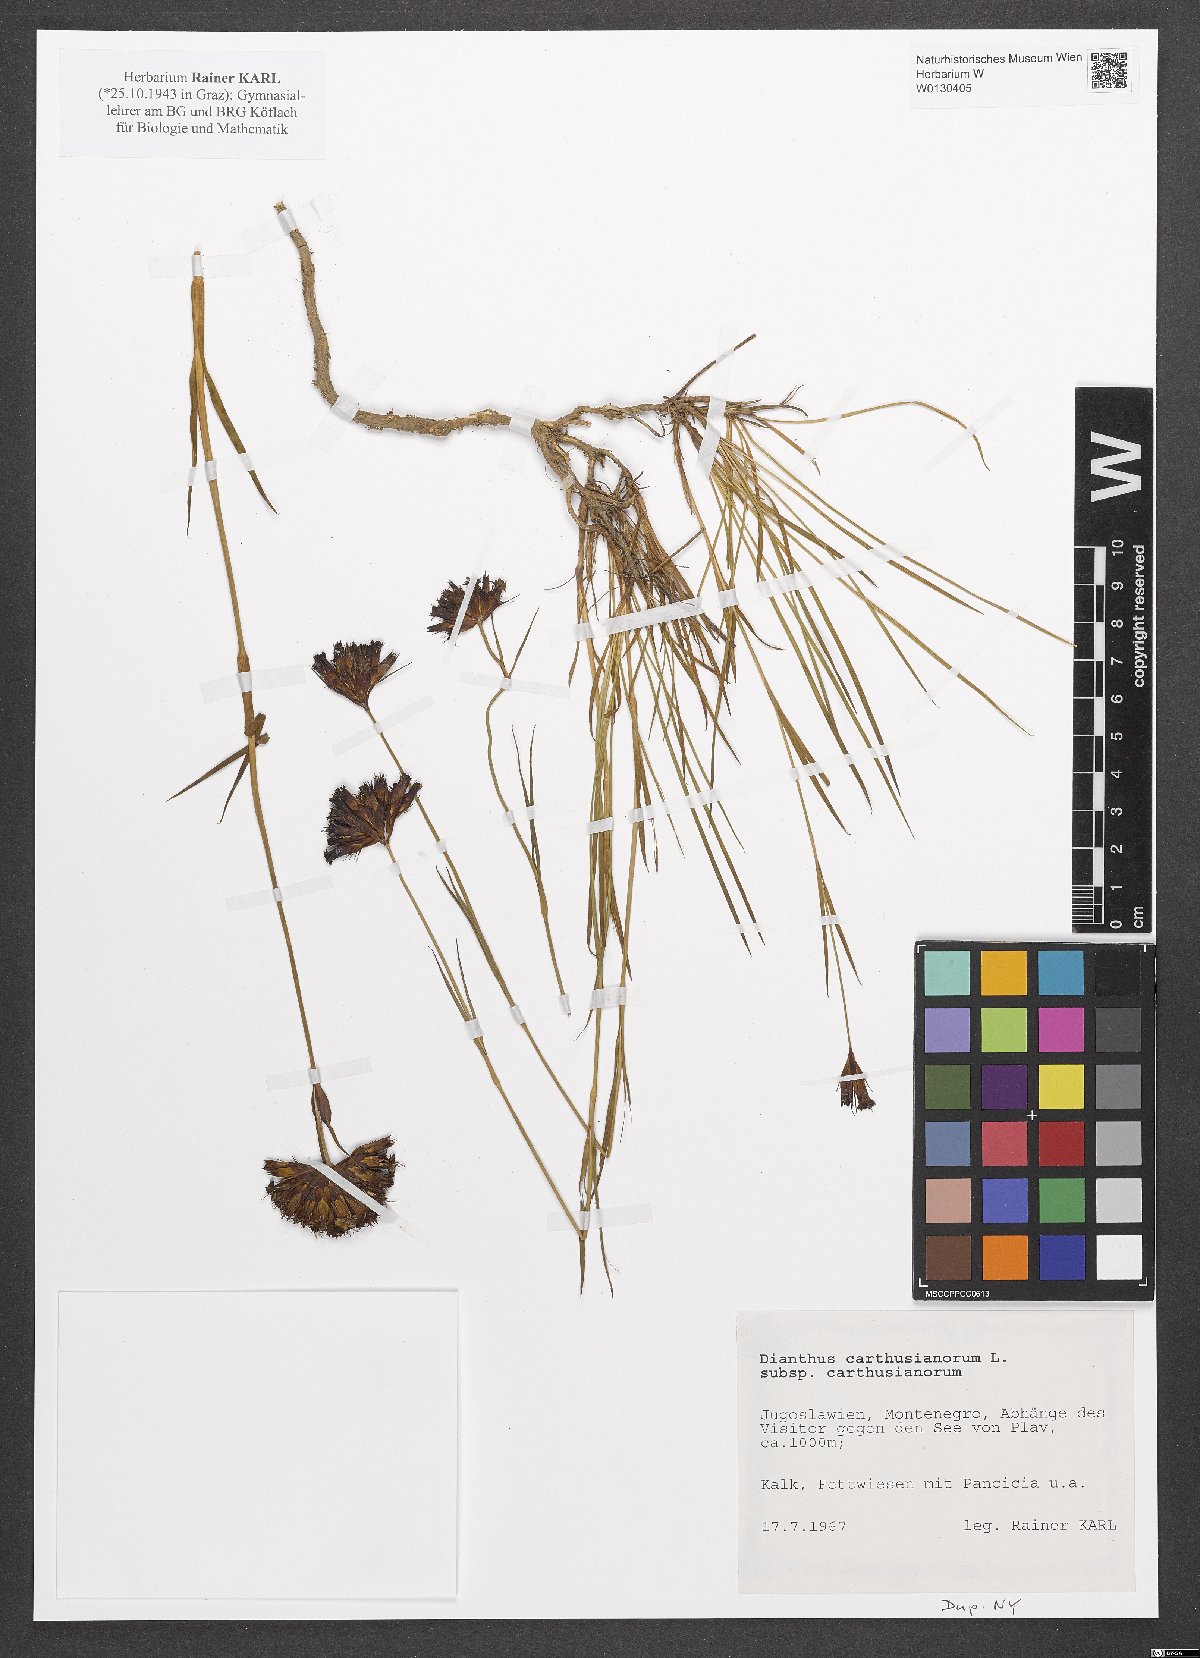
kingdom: Plantae
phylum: Tracheophyta
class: Magnoliopsida
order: Caryophyllales
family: Caryophyllaceae
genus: Dianthus
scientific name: Dianthus carthusianorum
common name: Carthusian pink
